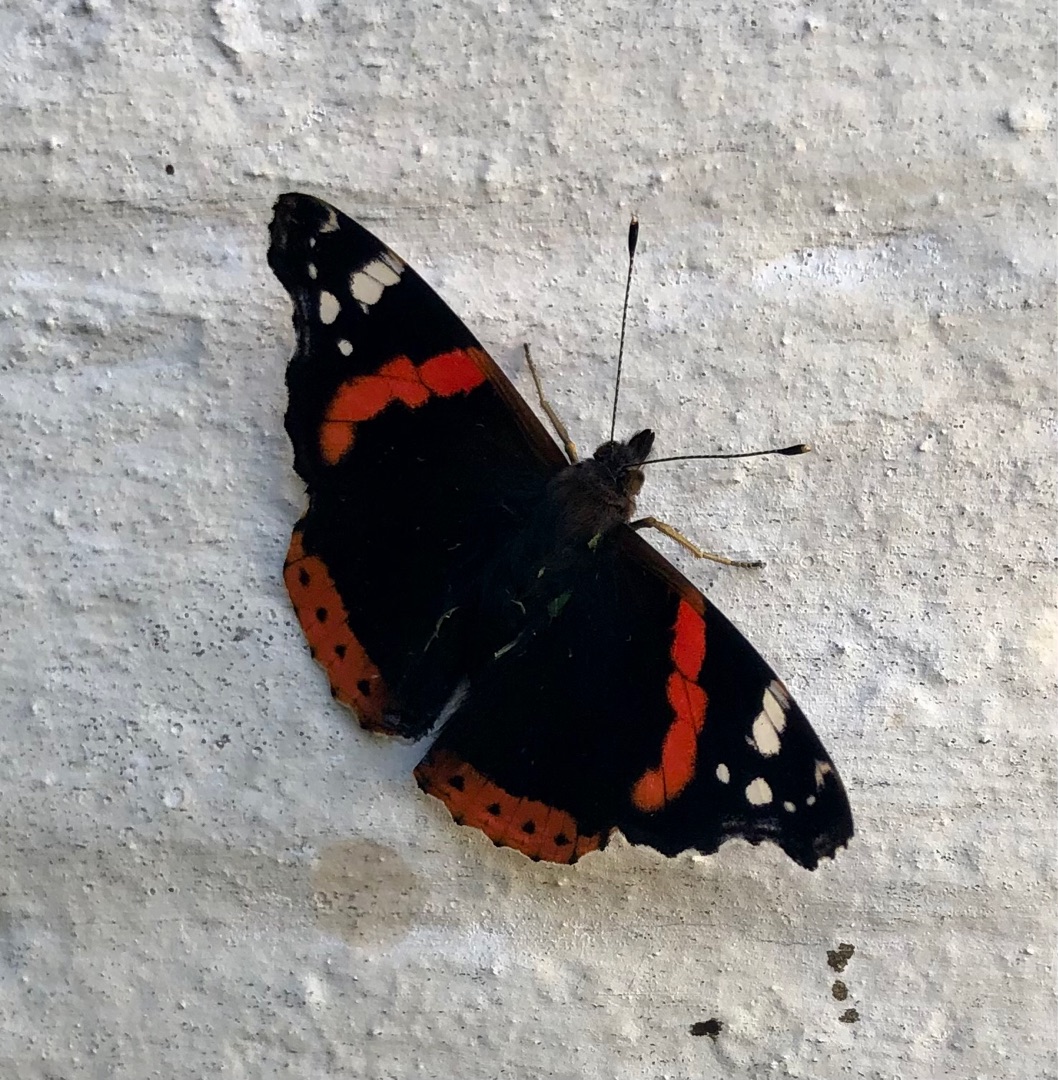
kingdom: Animalia
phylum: Arthropoda
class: Insecta
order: Lepidoptera
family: Nymphalidae
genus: Vanessa
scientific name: Vanessa atalanta
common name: Admiral
